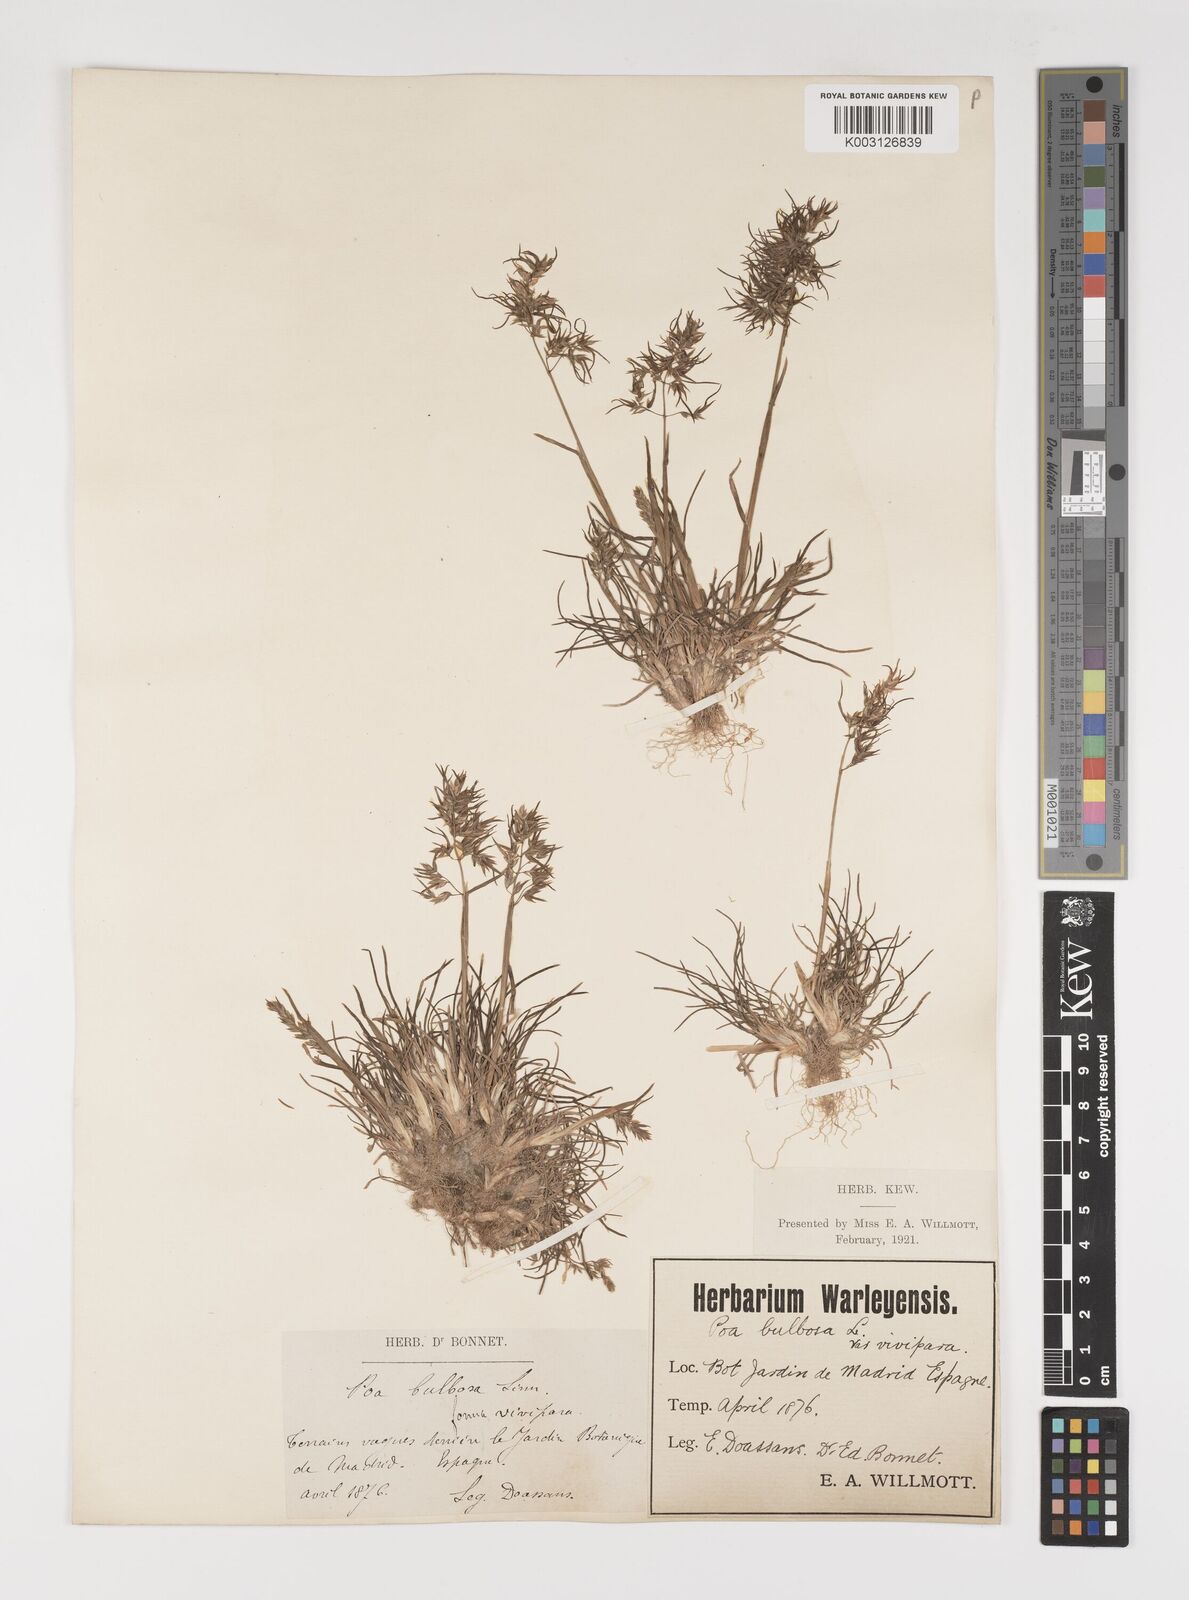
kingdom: Plantae
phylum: Tracheophyta
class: Liliopsida
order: Poales
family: Poaceae
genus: Poa
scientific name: Poa bulbosa
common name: Bulbous bluegrass
